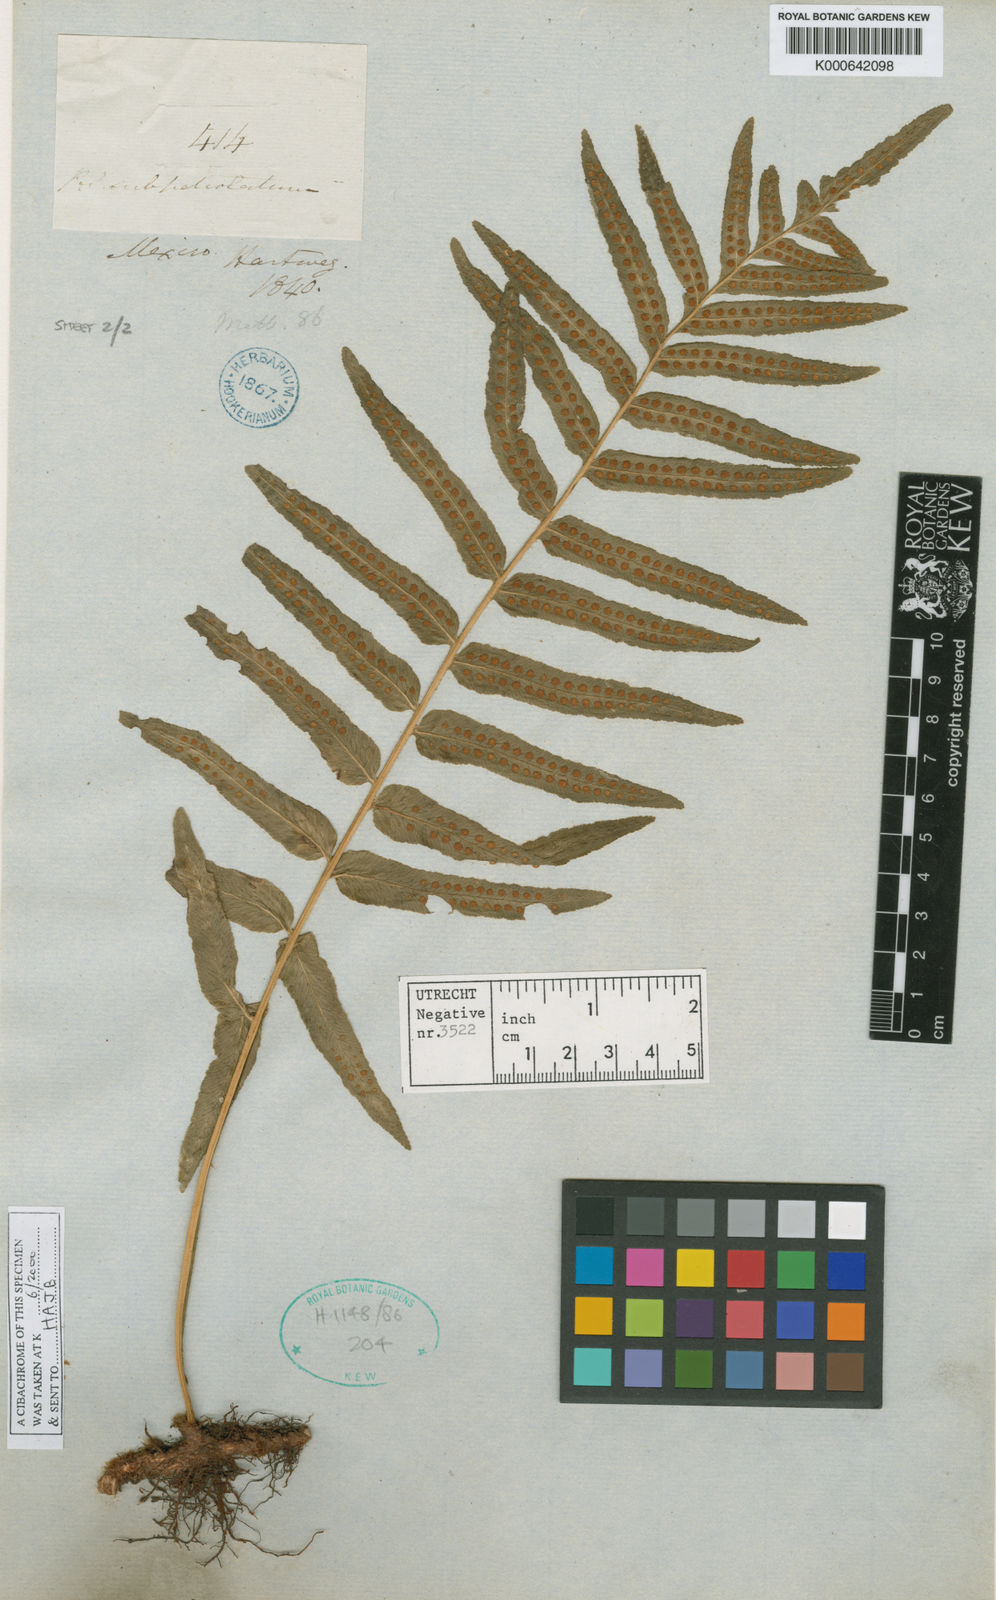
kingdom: Plantae
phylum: Tracheophyta
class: Polypodiopsida
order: Polypodiales
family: Polypodiaceae
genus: Polypodium
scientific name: Polypodium subpetiolatum
